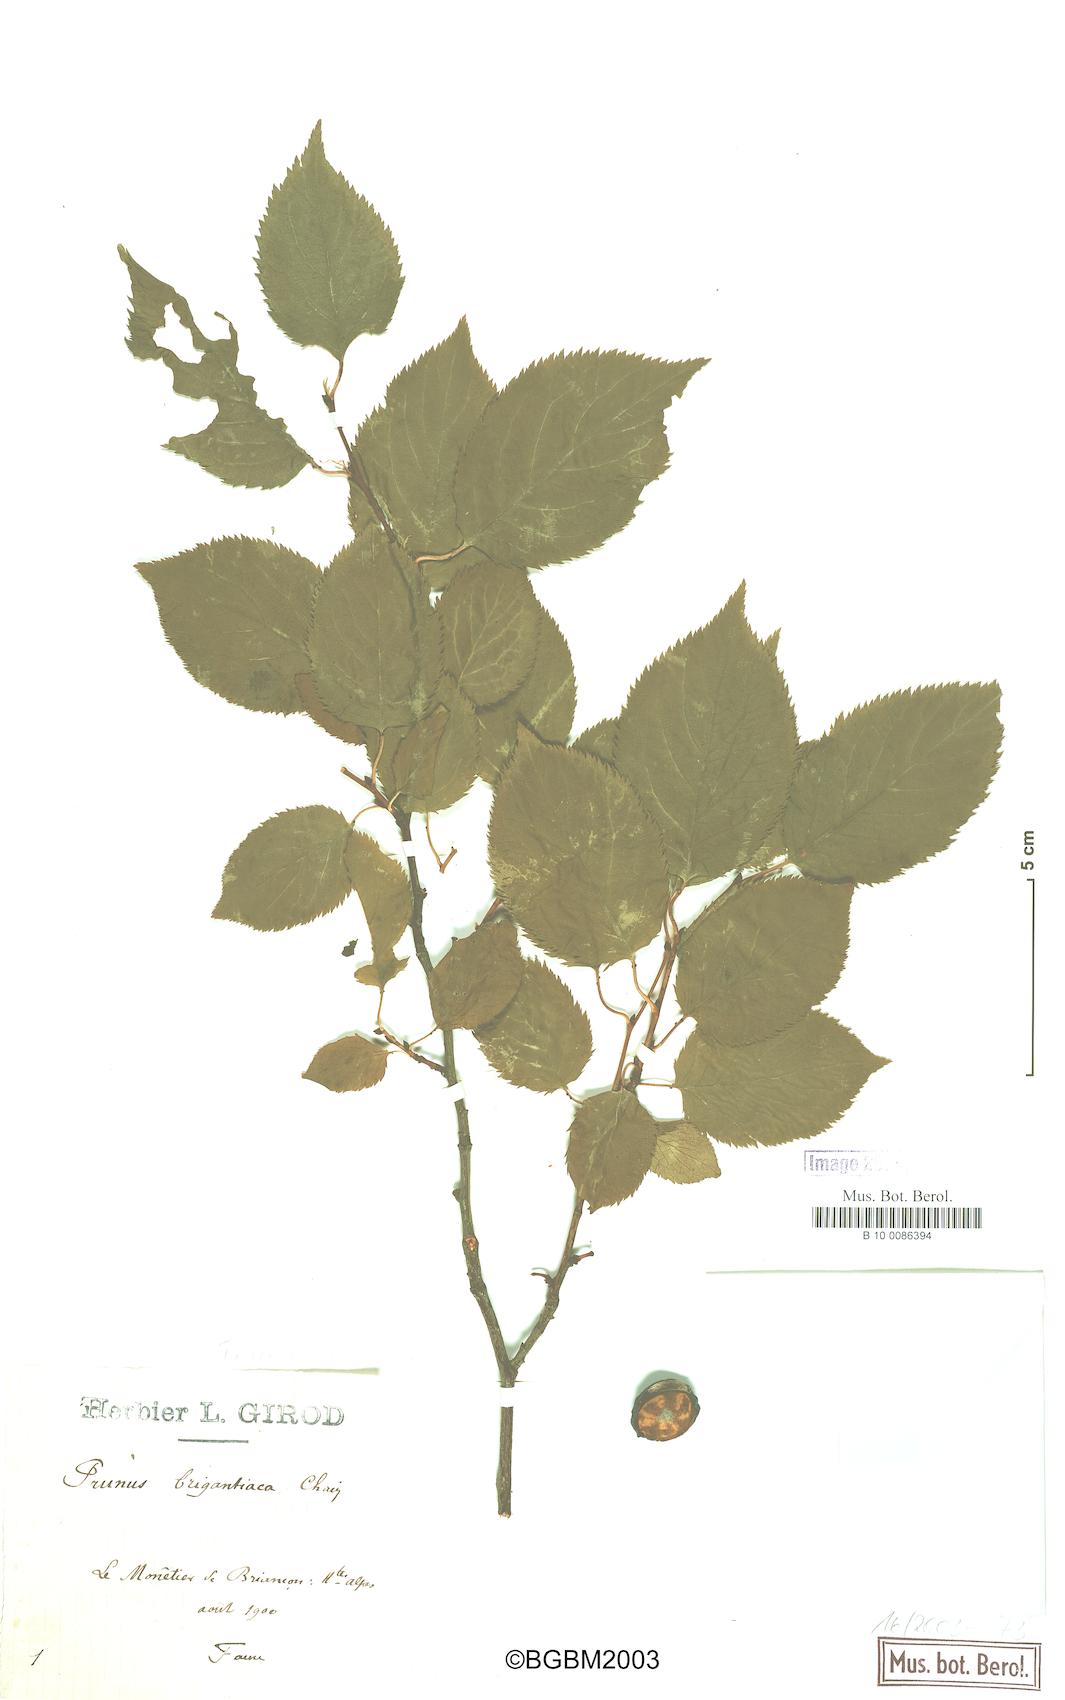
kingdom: Plantae
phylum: Tracheophyta
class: Magnoliopsida
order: Rosales
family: Rosaceae
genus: Prunus
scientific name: Prunus brigantina
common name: Briançon apricot
